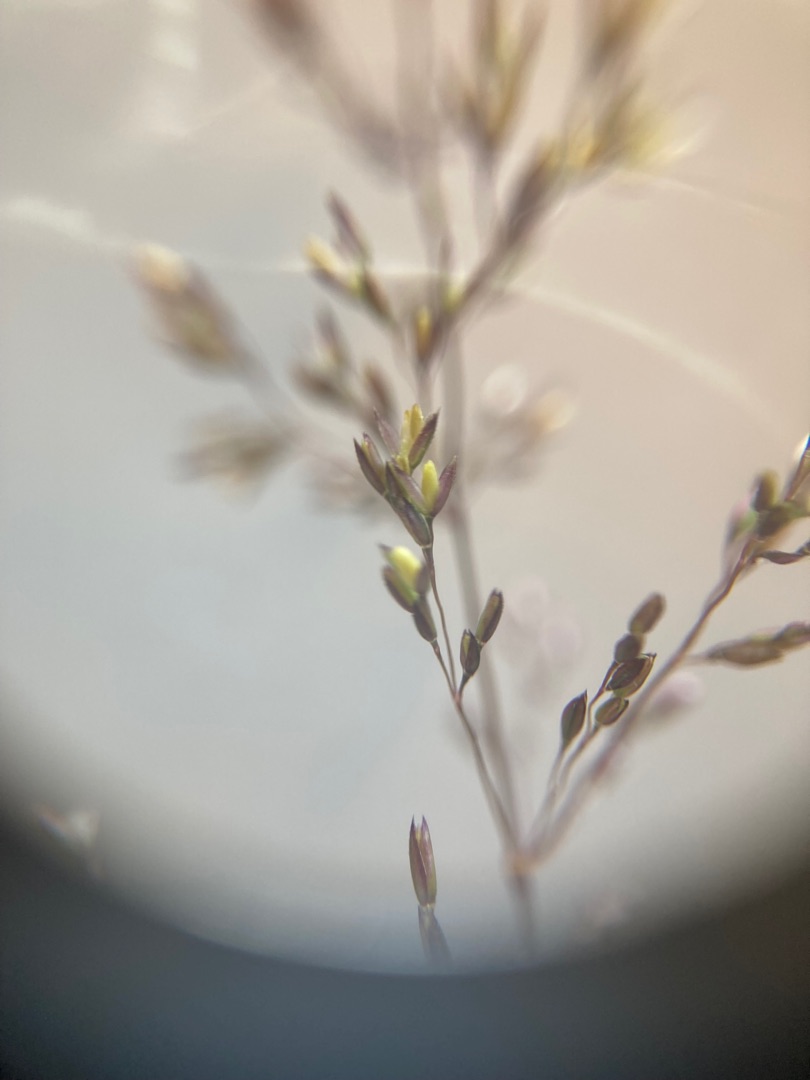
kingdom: Plantae
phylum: Tracheophyta
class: Liliopsida
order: Poales
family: Poaceae
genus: Agrostis
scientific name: Agrostis capillaris
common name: Almindelig hvene
